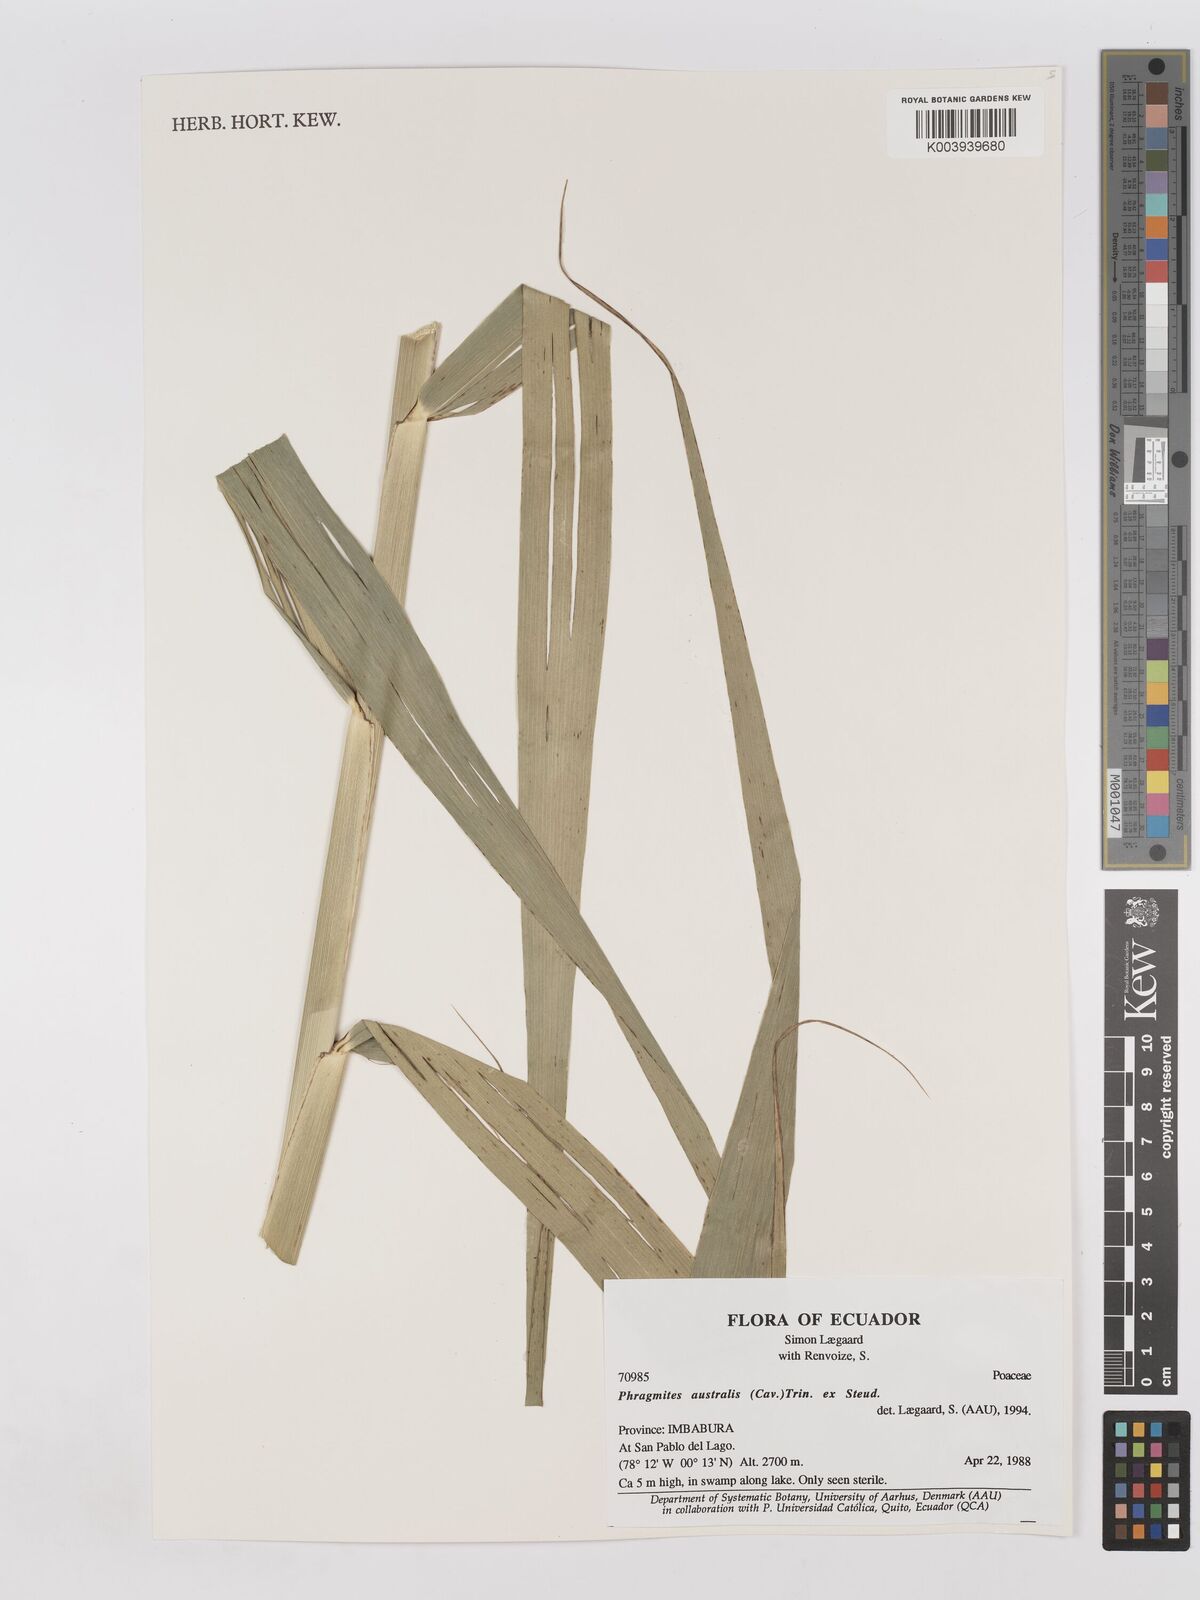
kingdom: Plantae
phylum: Tracheophyta
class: Liliopsida
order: Poales
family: Poaceae
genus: Phragmites
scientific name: Phragmites australis
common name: Common reed
